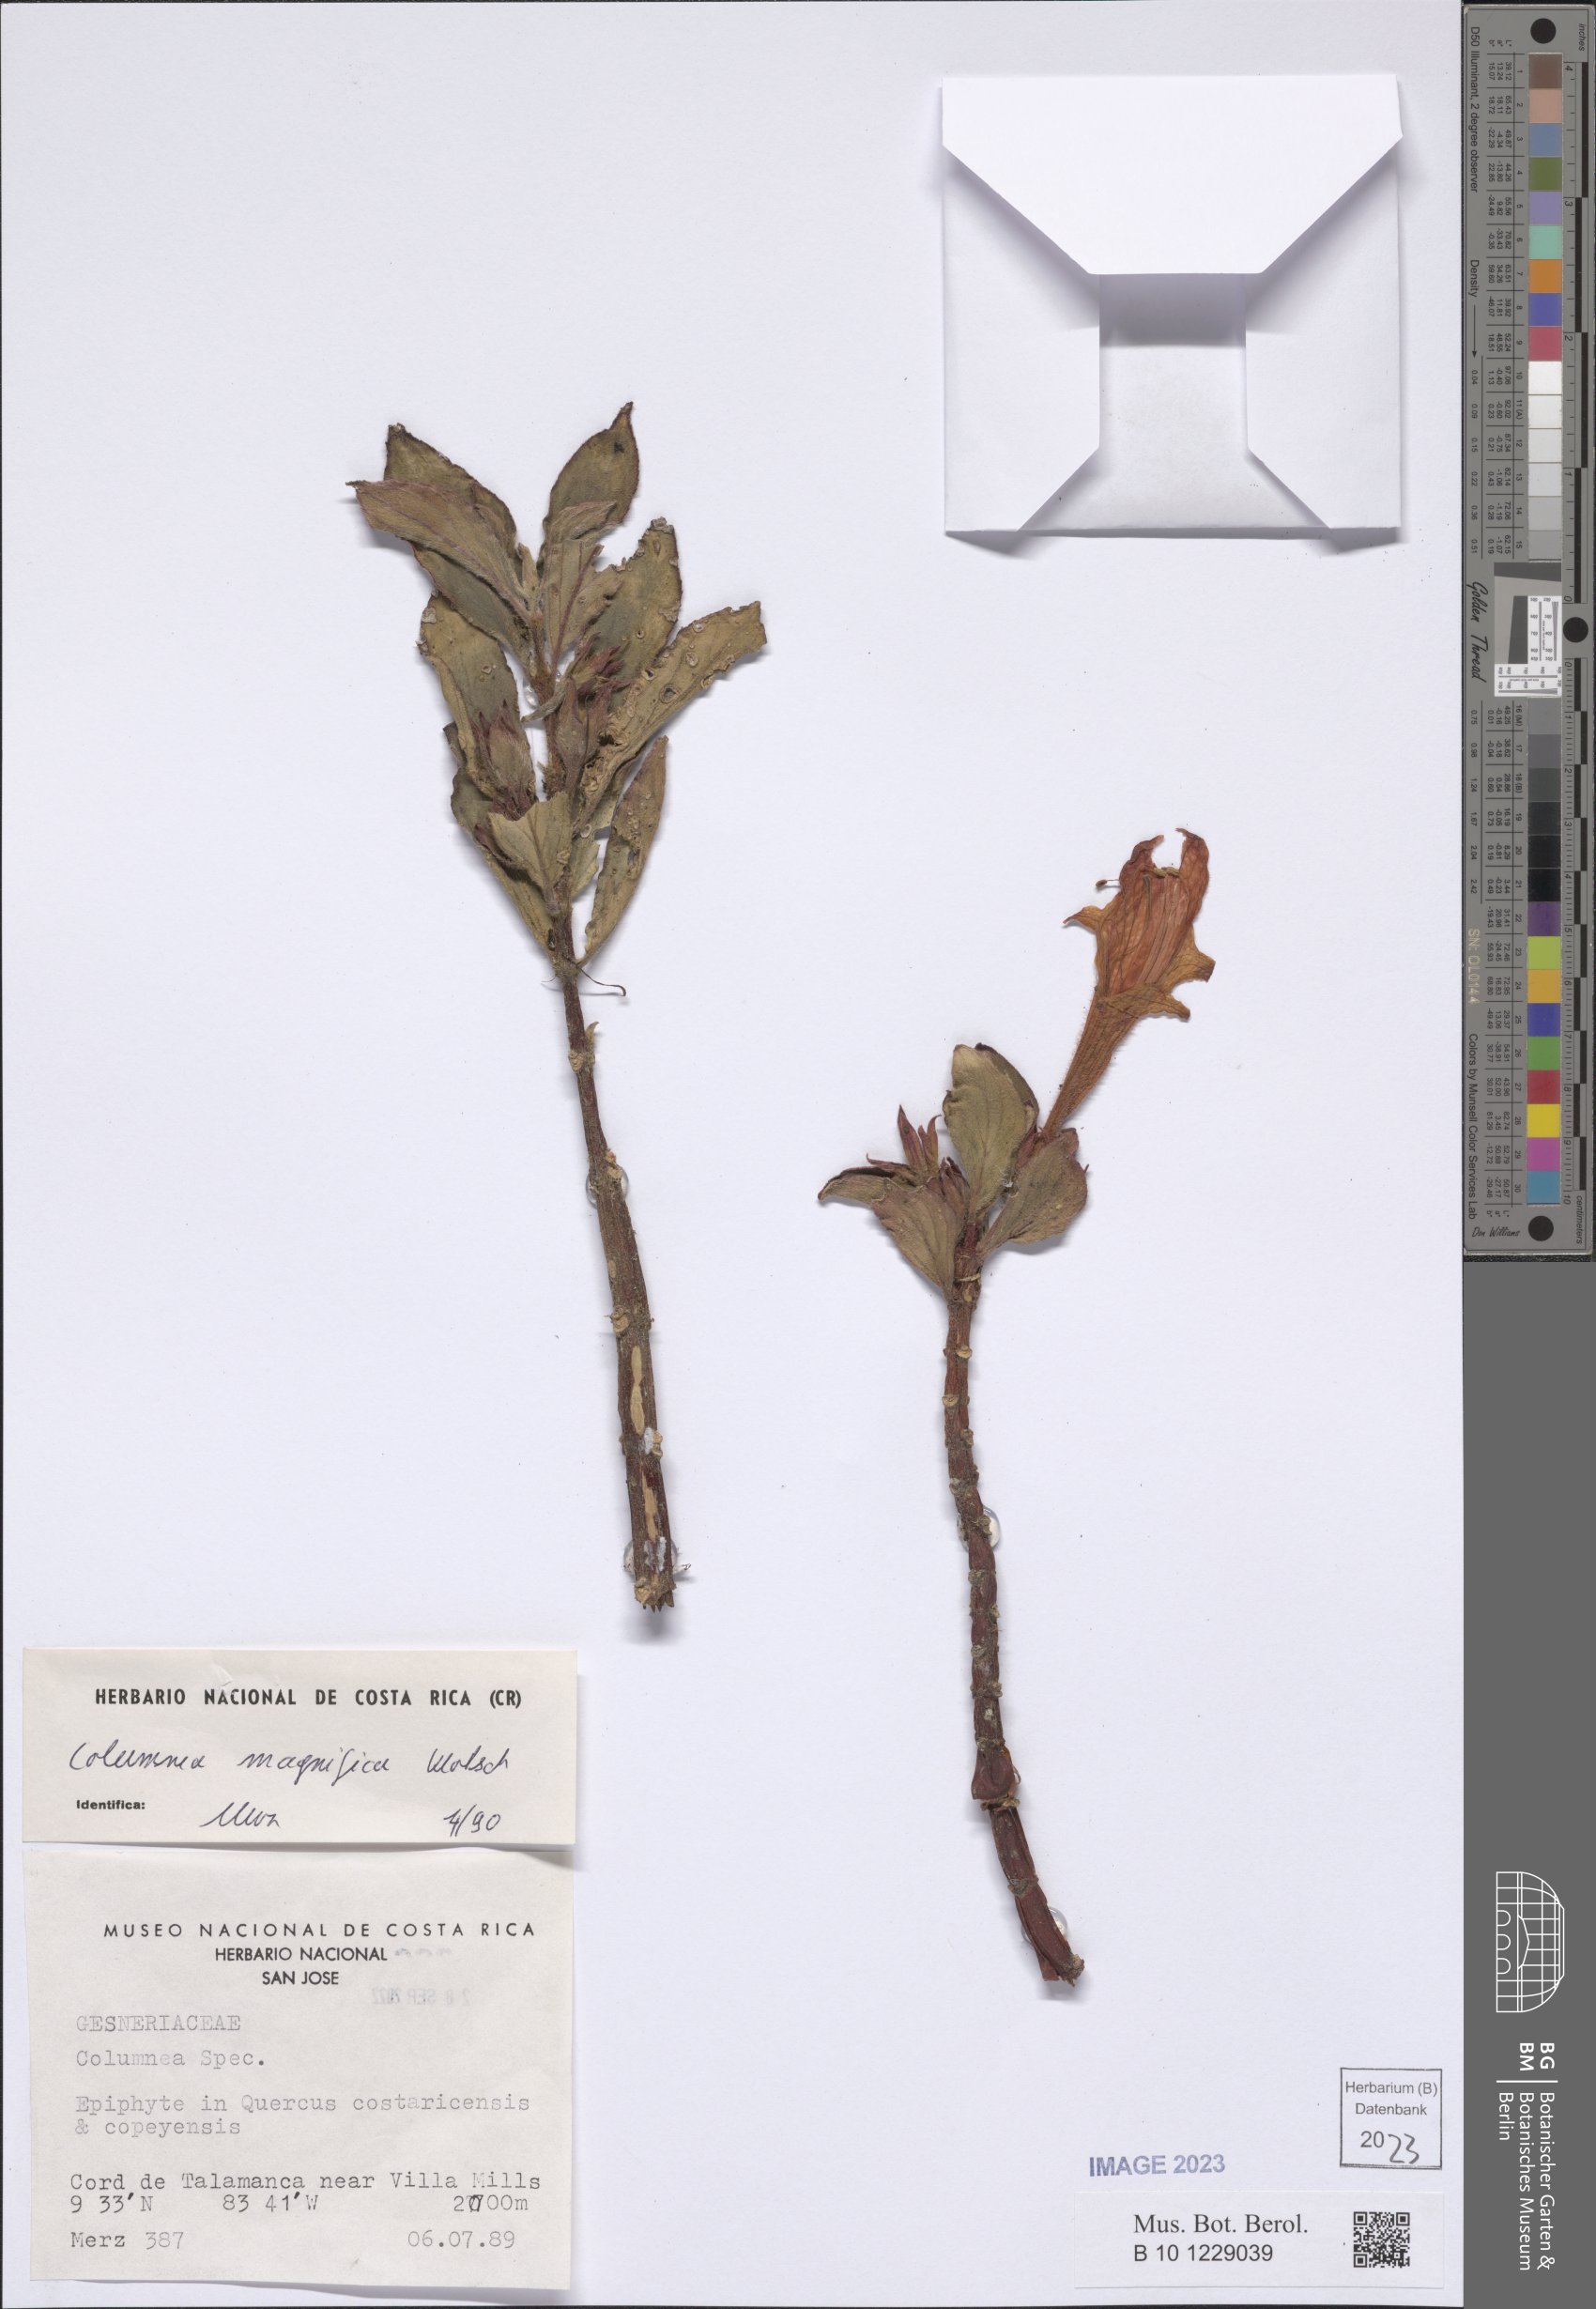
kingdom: Plantae
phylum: Tracheophyta
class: Magnoliopsida
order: Lamiales
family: Gesneriaceae
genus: Columnea
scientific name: Columnea magnifica
